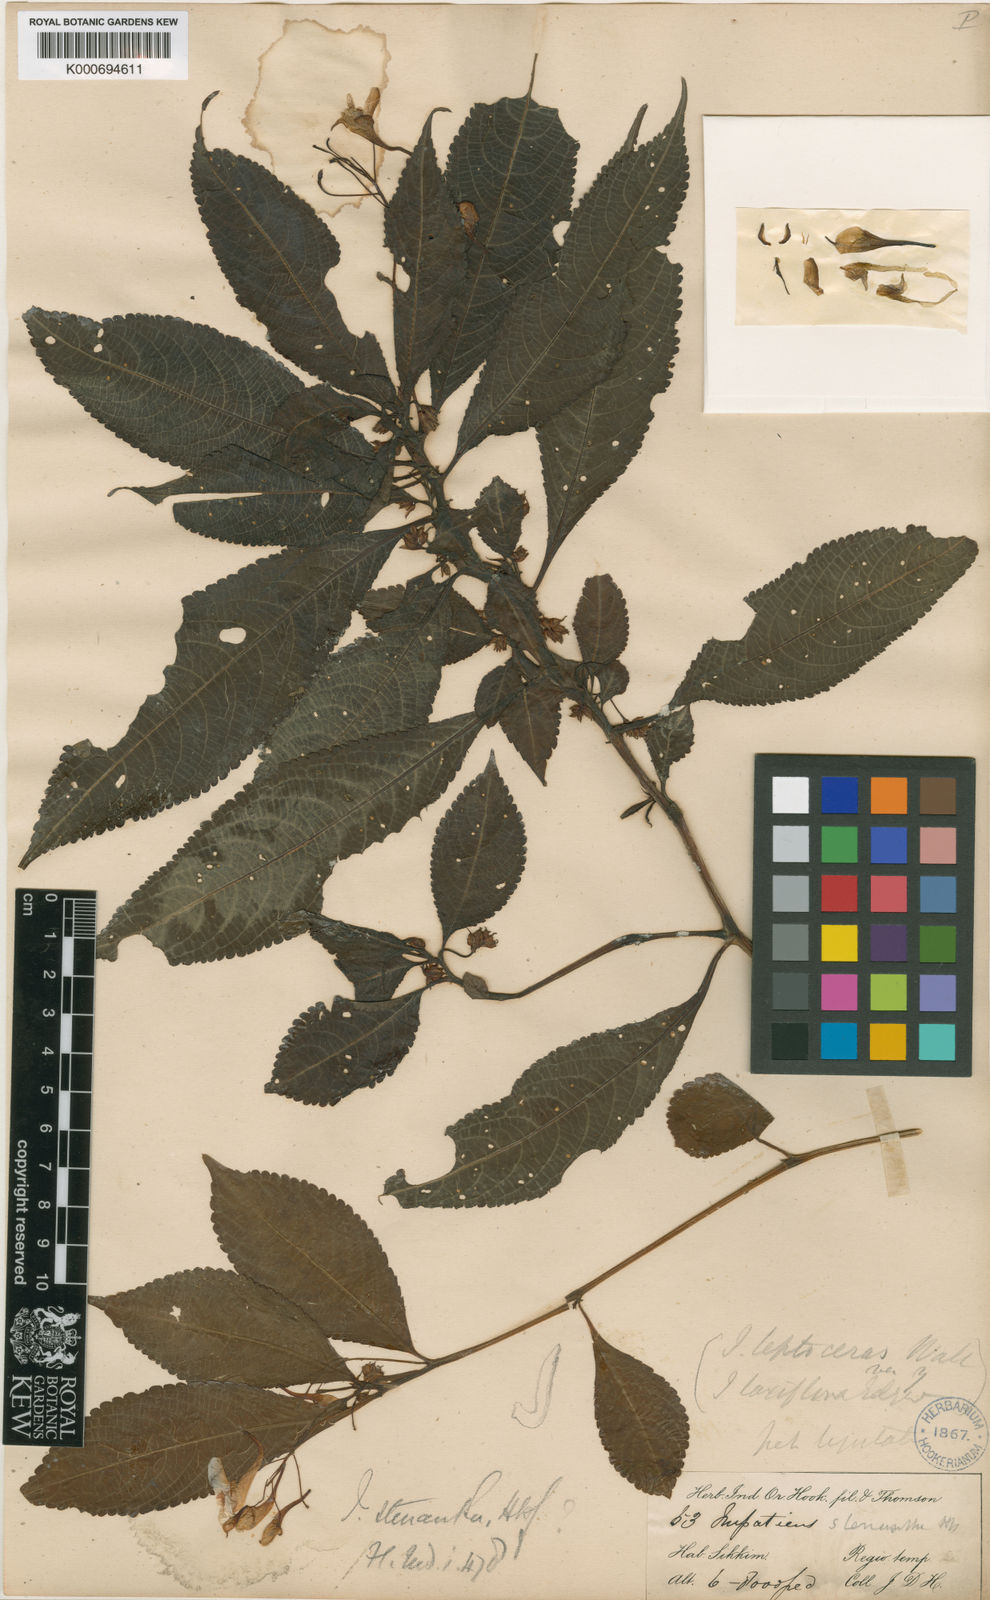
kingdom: Plantae
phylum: Tracheophyta
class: Magnoliopsida
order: Ericales
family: Balsaminaceae
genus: Impatiens
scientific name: Impatiens stenantha
